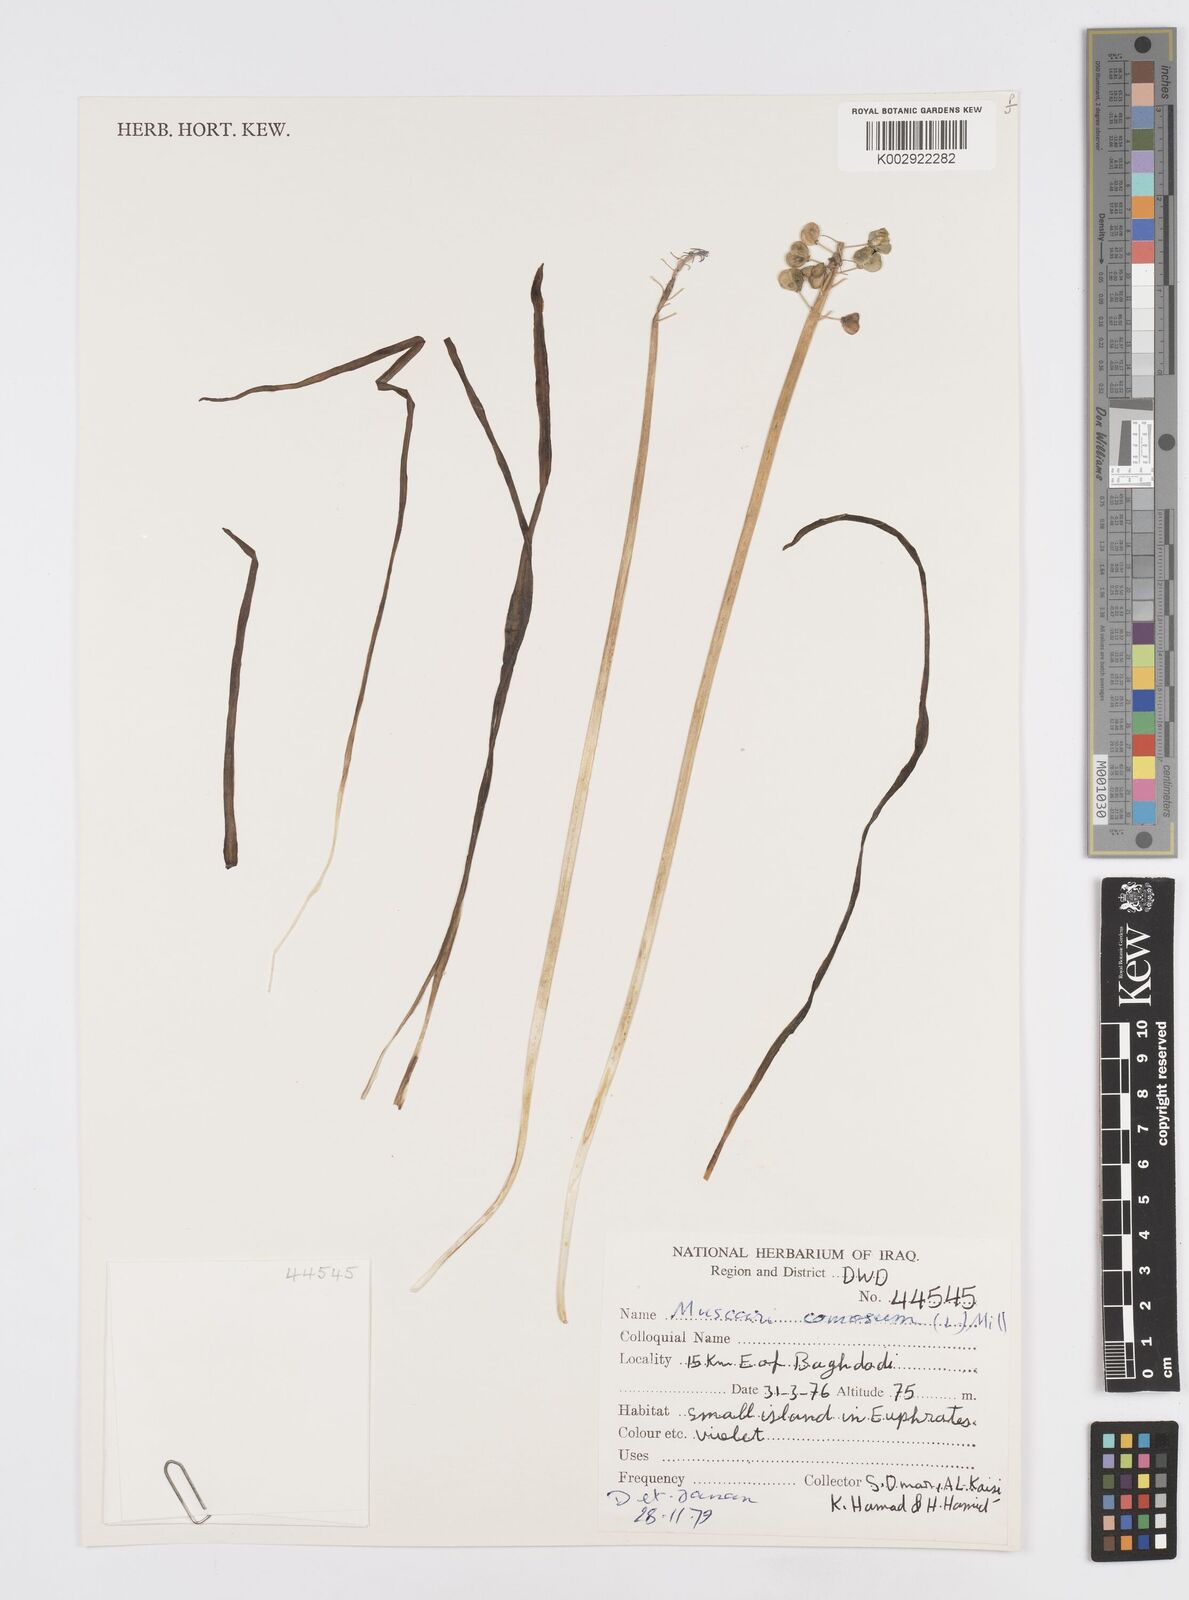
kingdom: Plantae
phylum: Tracheophyta
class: Liliopsida
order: Asparagales
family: Asparagaceae
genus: Muscari
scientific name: Muscari comosum
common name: Tassel hyacinth
